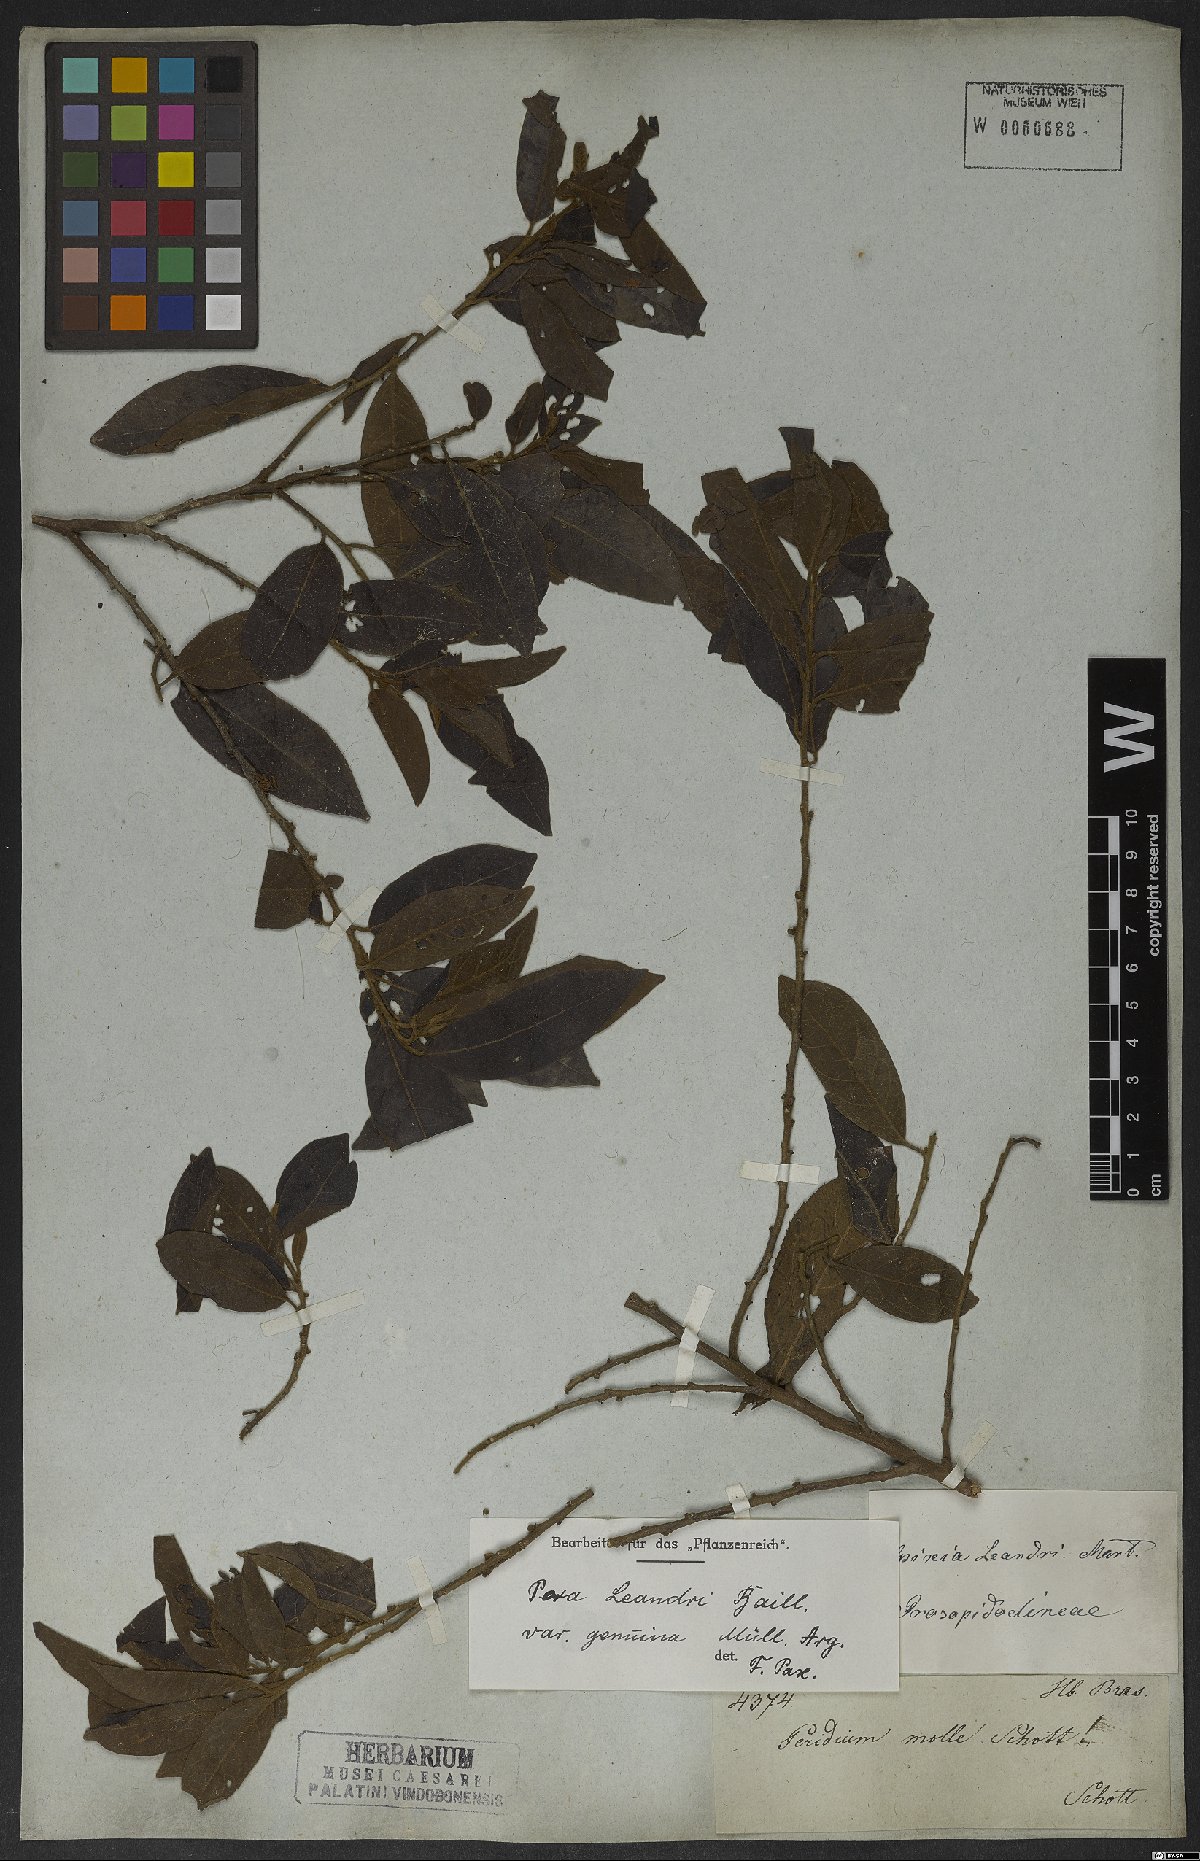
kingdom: Plantae
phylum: Tracheophyta
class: Magnoliopsida
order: Malpighiales
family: Peraceae
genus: Pera
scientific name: Pera heteranthera
